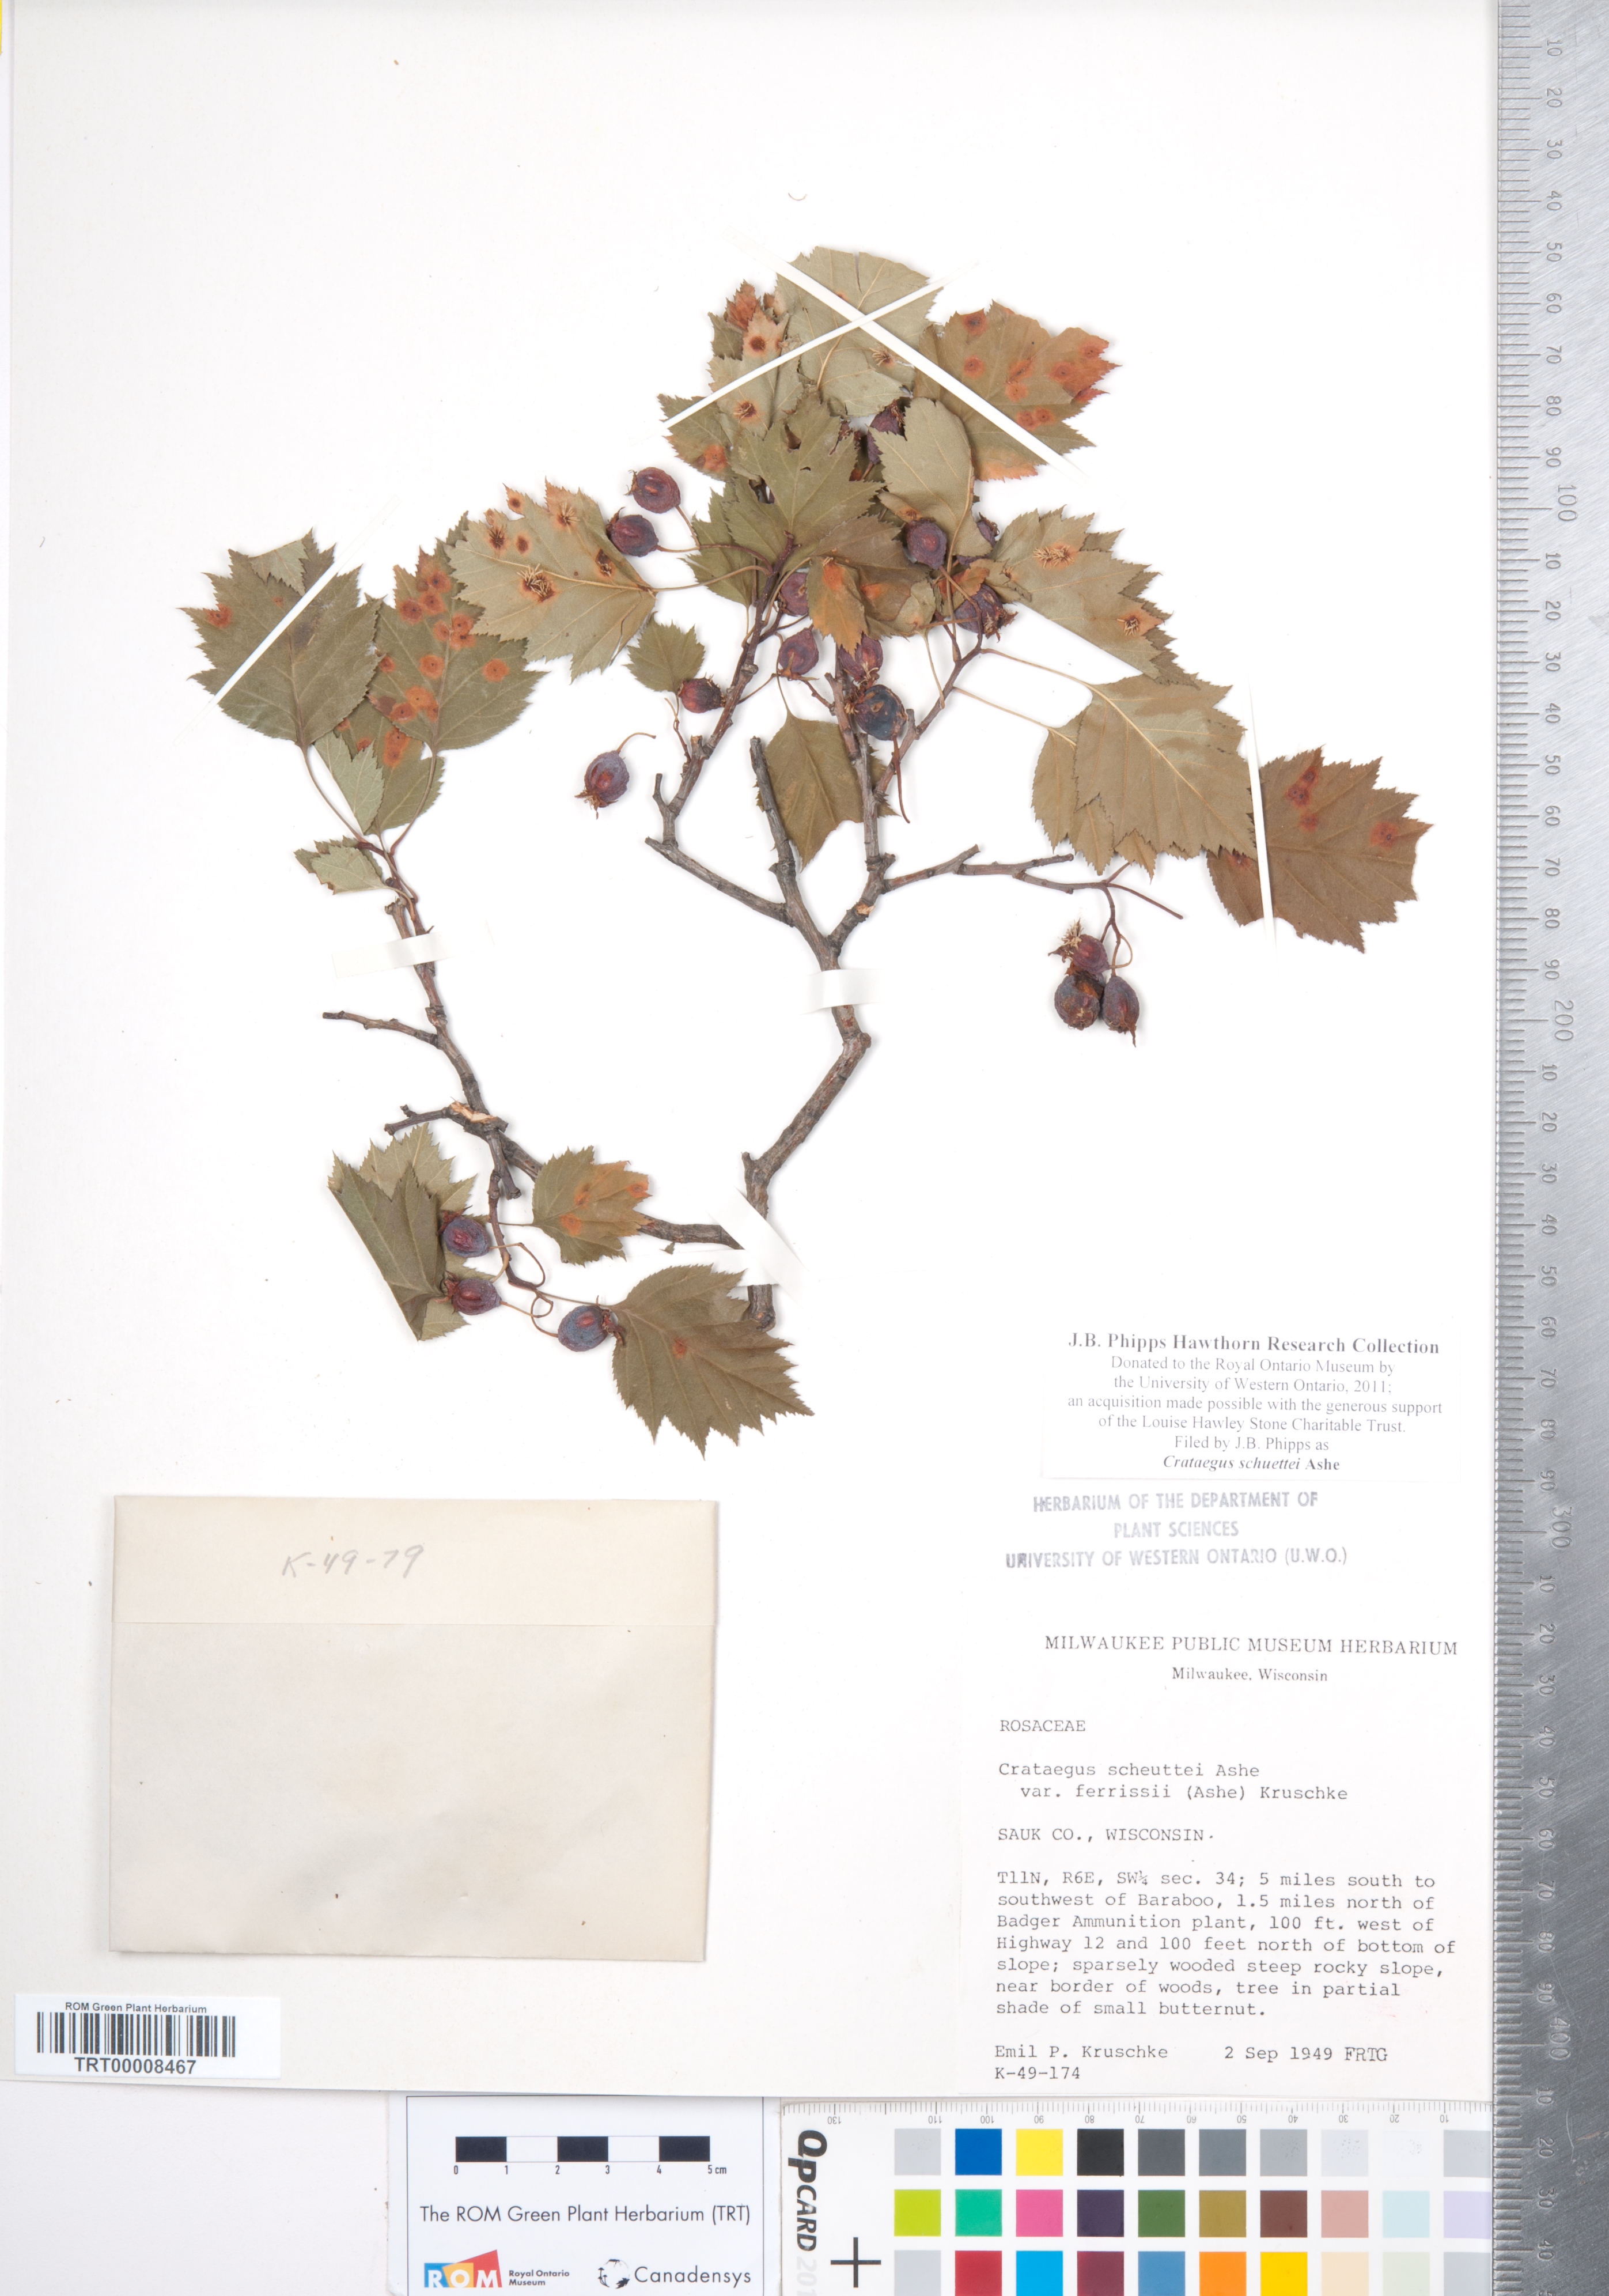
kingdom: Plantae
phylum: Tracheophyta
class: Magnoliopsida
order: Rosales
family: Rosaceae
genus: Crataegus
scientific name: Crataegus schuettei
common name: Schuette's hawthorn
